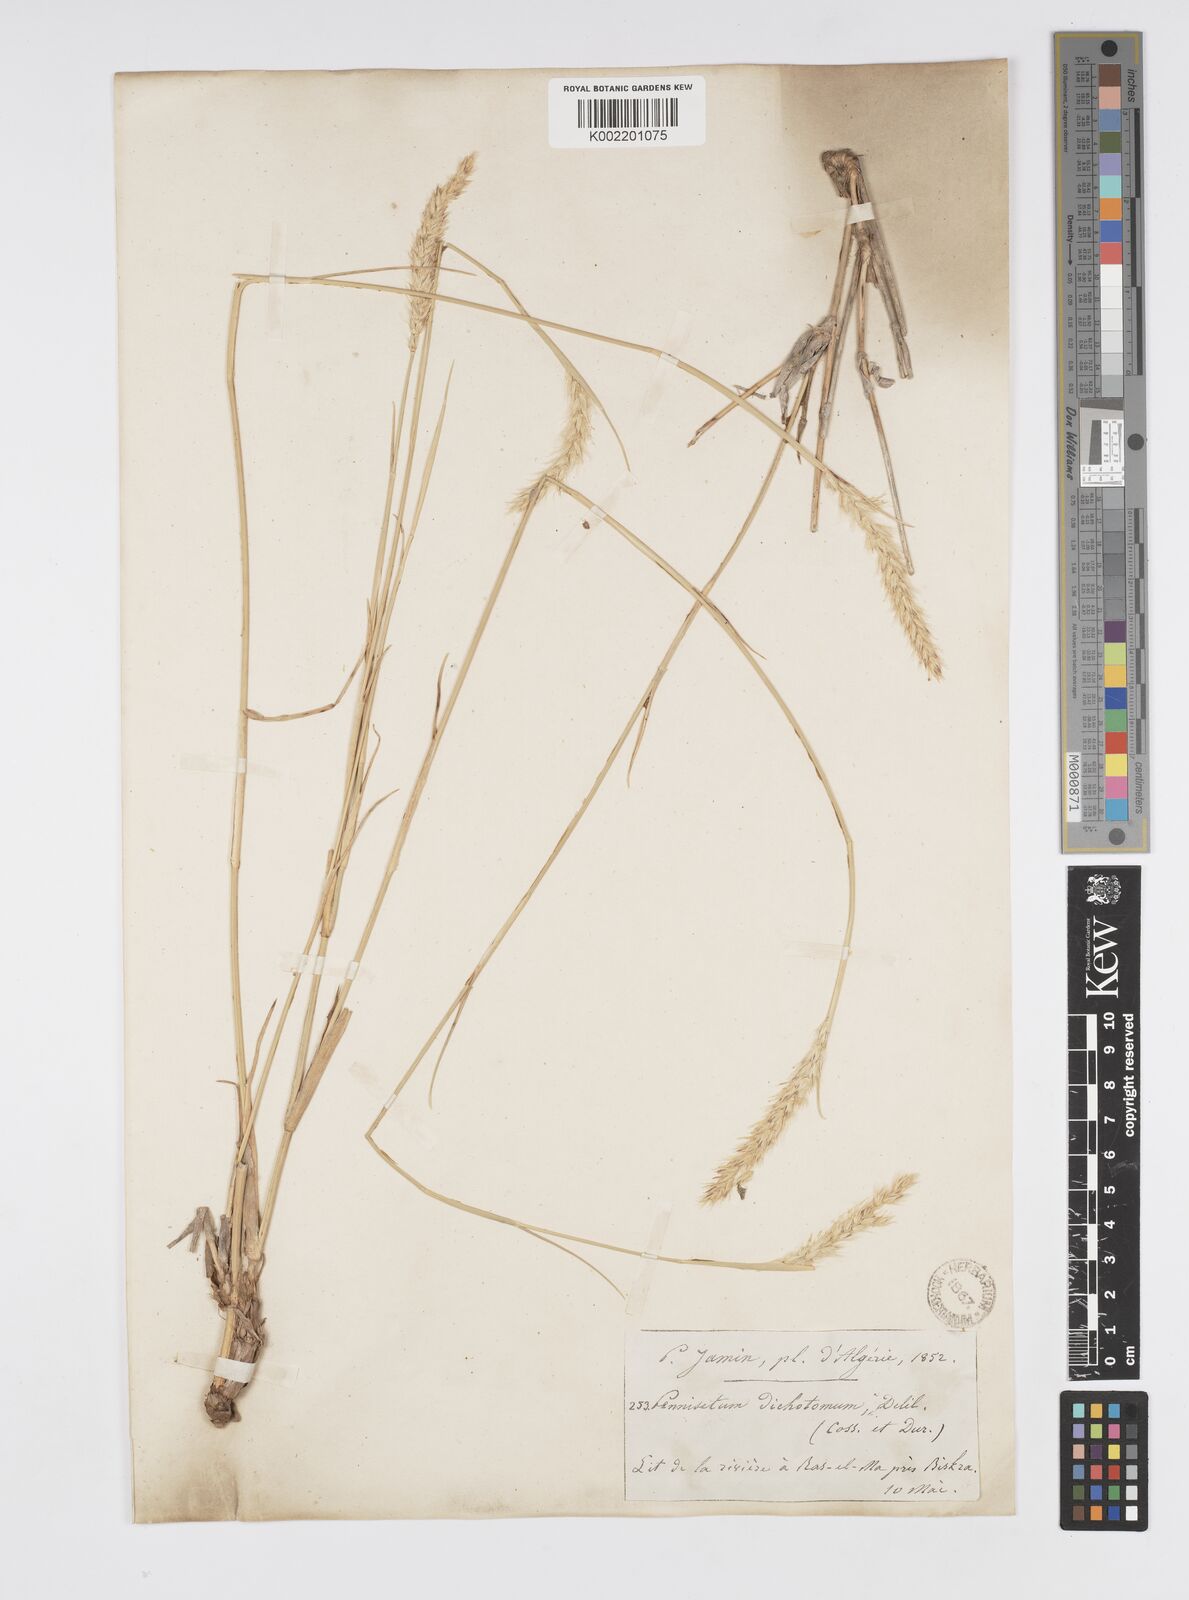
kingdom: Plantae
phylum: Tracheophyta
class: Liliopsida
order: Poales
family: Poaceae
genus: Cenchrus
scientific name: Cenchrus divisus
